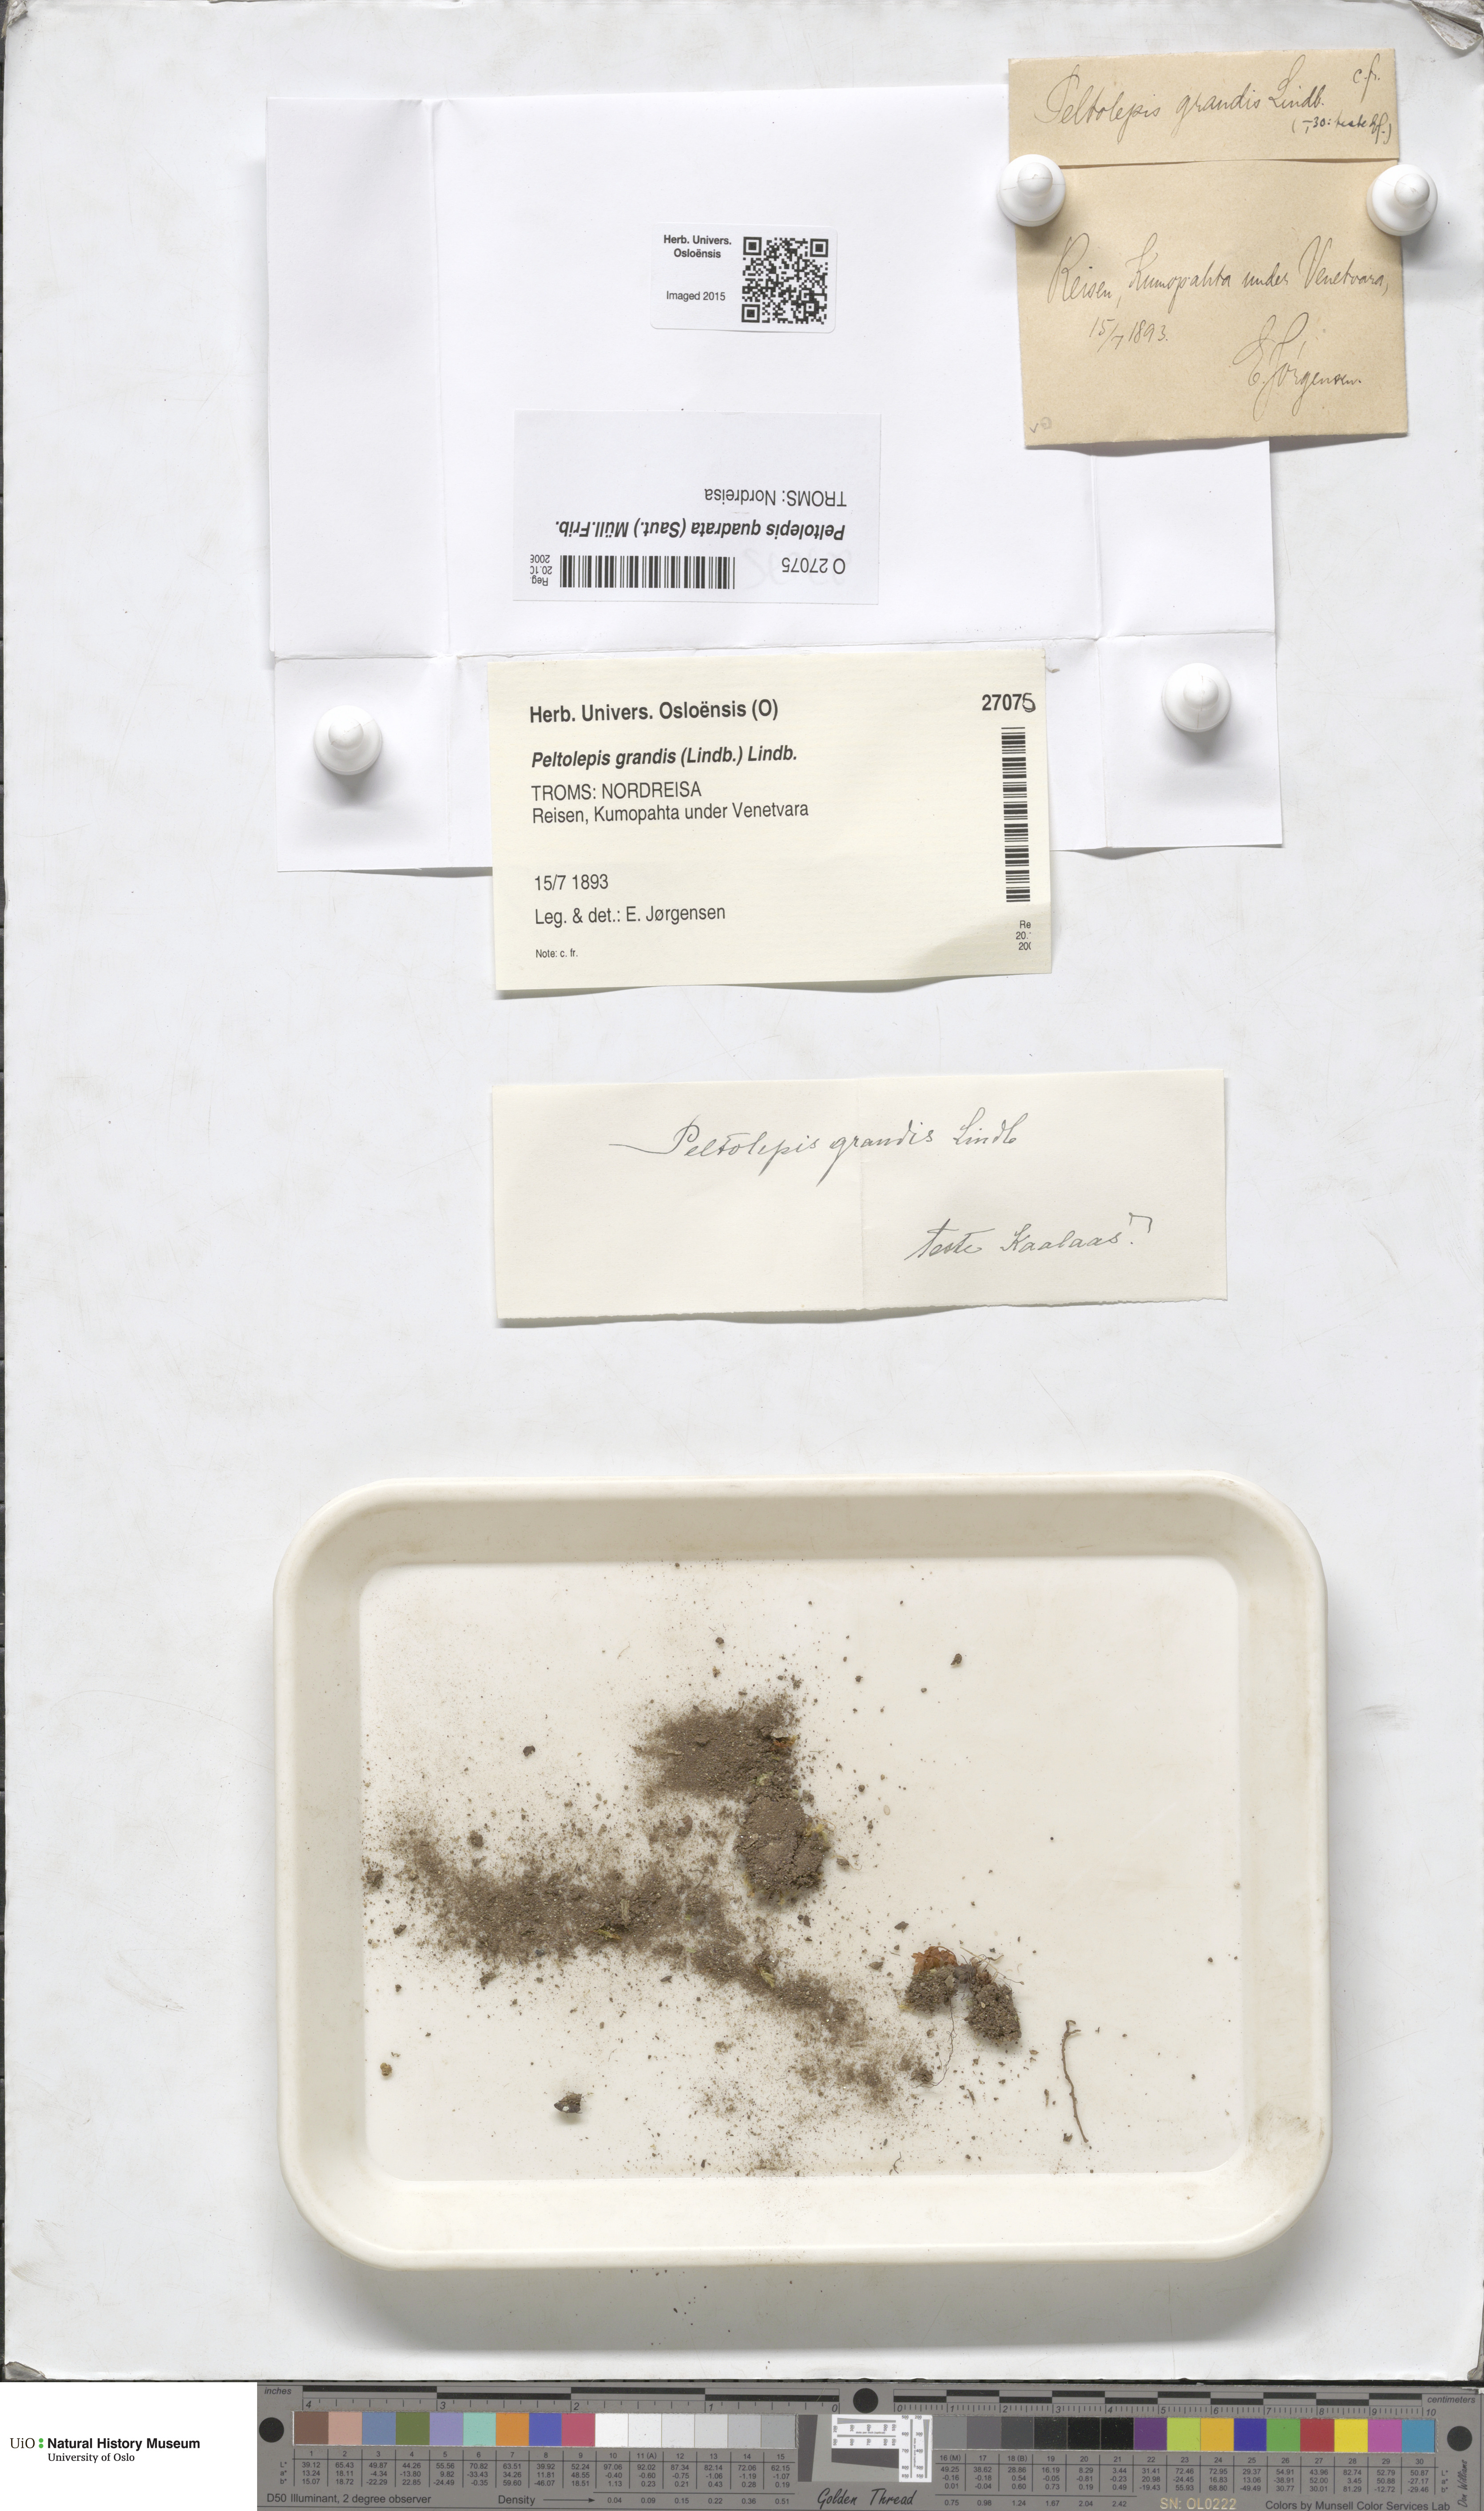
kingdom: Plantae
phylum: Marchantiophyta
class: Marchantiopsida
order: Marchantiales
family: Cleveaceae
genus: Peltolepis
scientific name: Peltolepis quadrata
